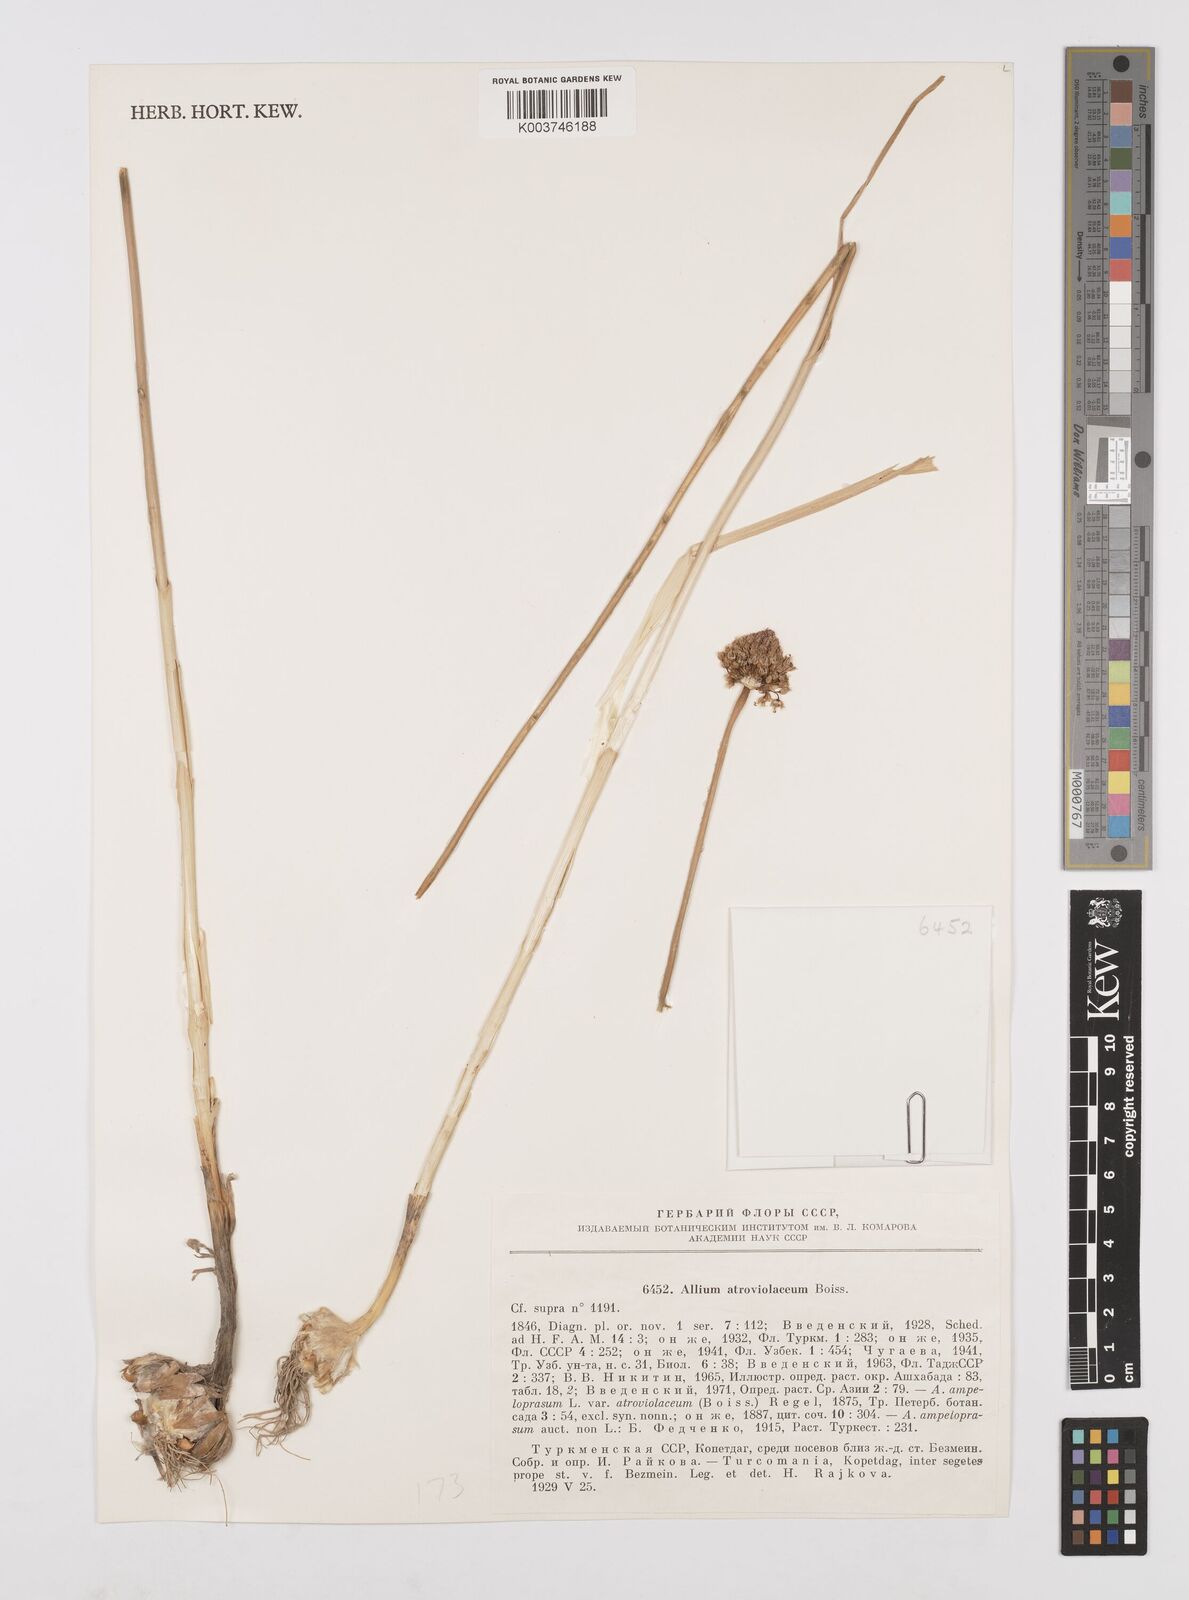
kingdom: Plantae
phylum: Tracheophyta
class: Liliopsida
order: Asparagales
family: Amaryllidaceae
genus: Allium
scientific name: Allium atroviolaceum
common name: Broadleaf wild leek
